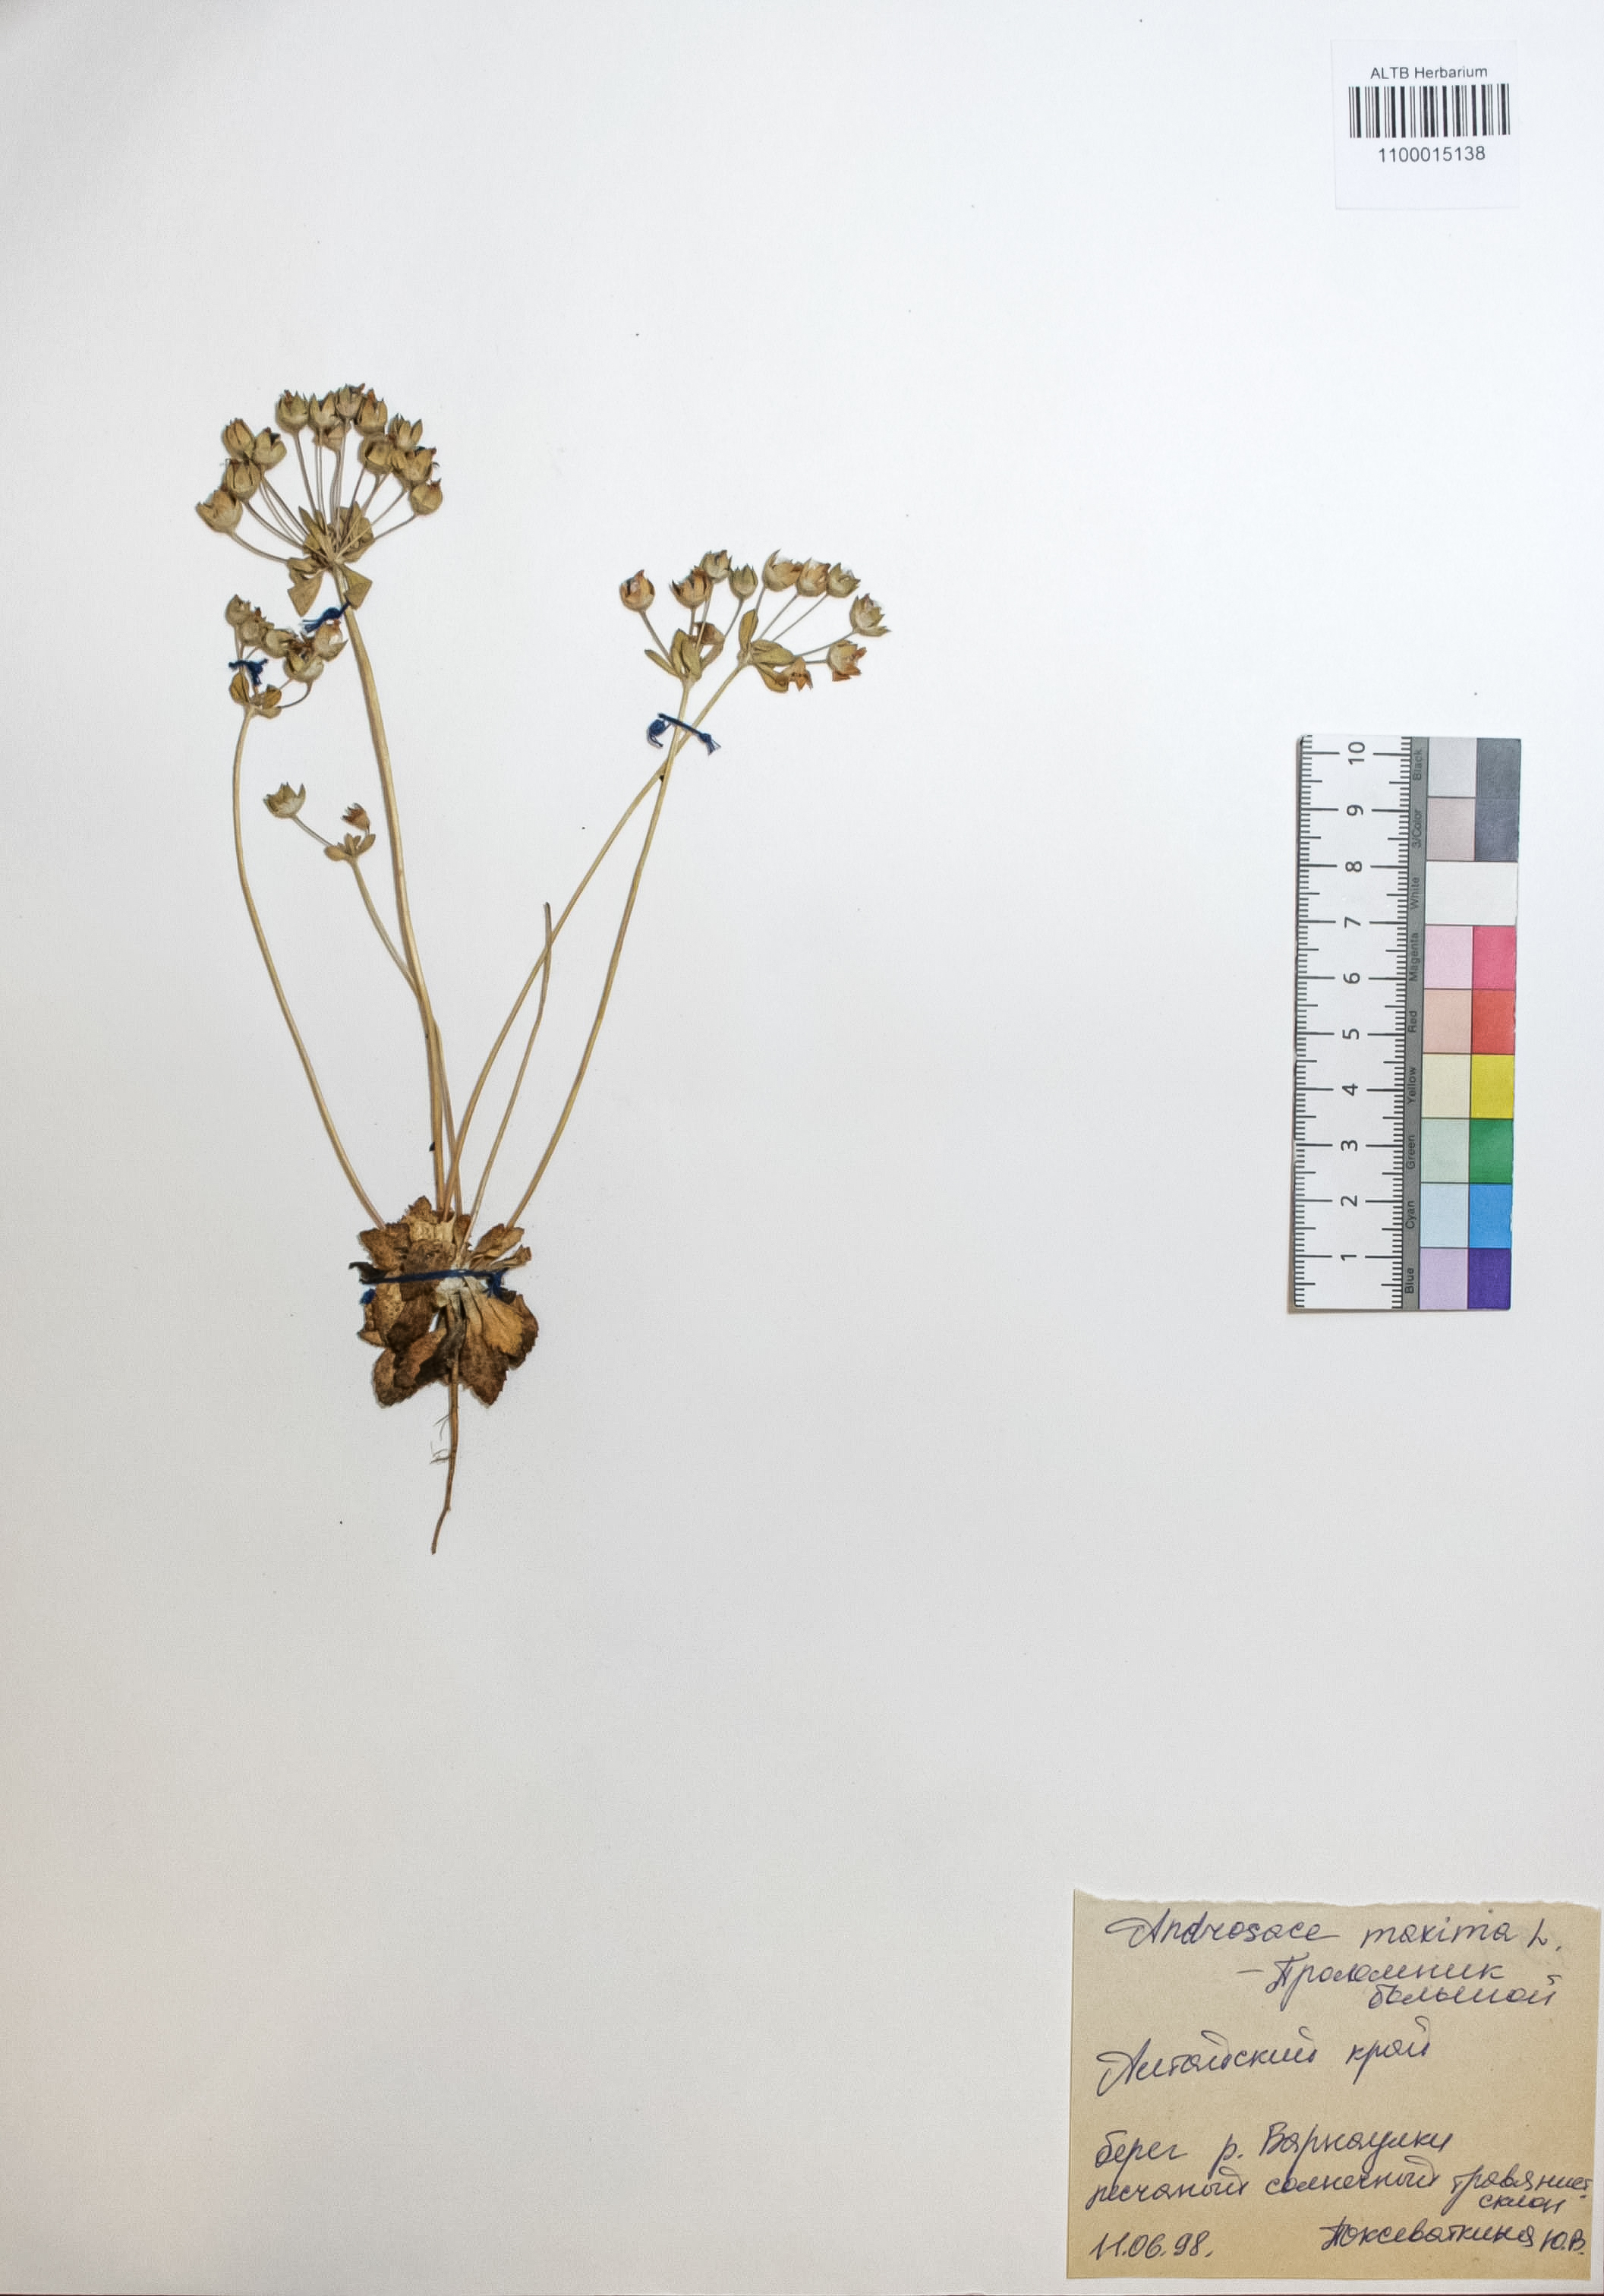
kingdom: Plantae
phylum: Tracheophyta
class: Magnoliopsida
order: Ericales
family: Primulaceae
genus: Androsace
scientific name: Androsace maxima
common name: Annual androsace
